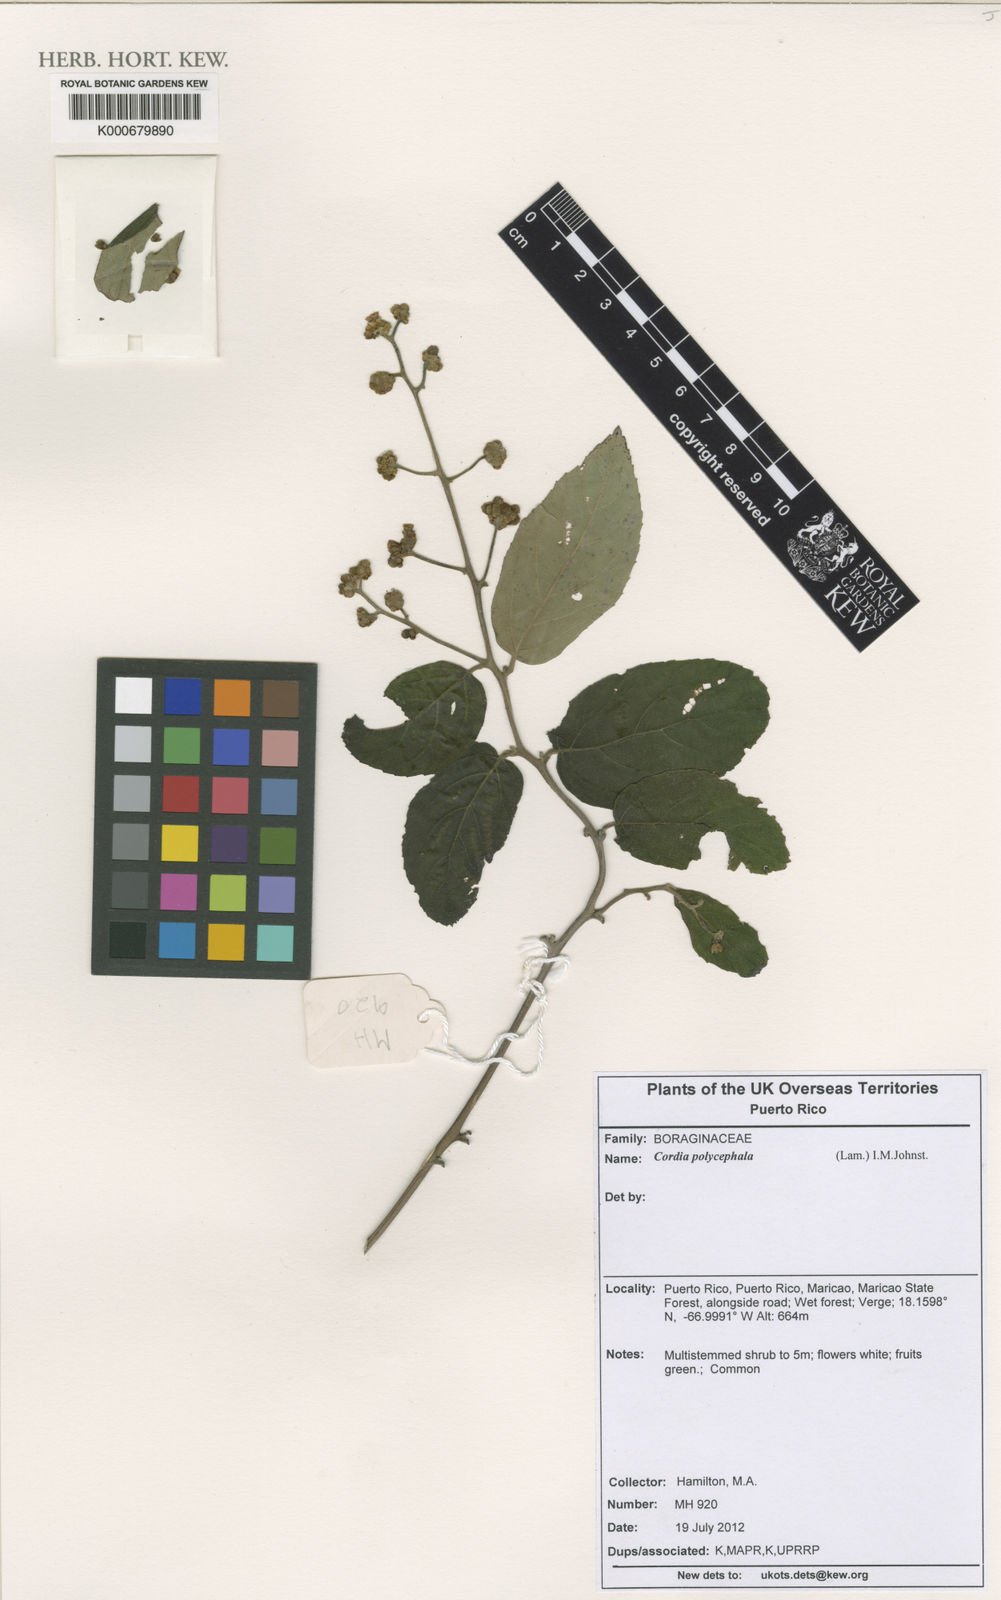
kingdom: Plantae
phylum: Tracheophyta
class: Magnoliopsida
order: Boraginales
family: Cordiaceae
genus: Varronia
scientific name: Varronia polycephala
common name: Black-sage
